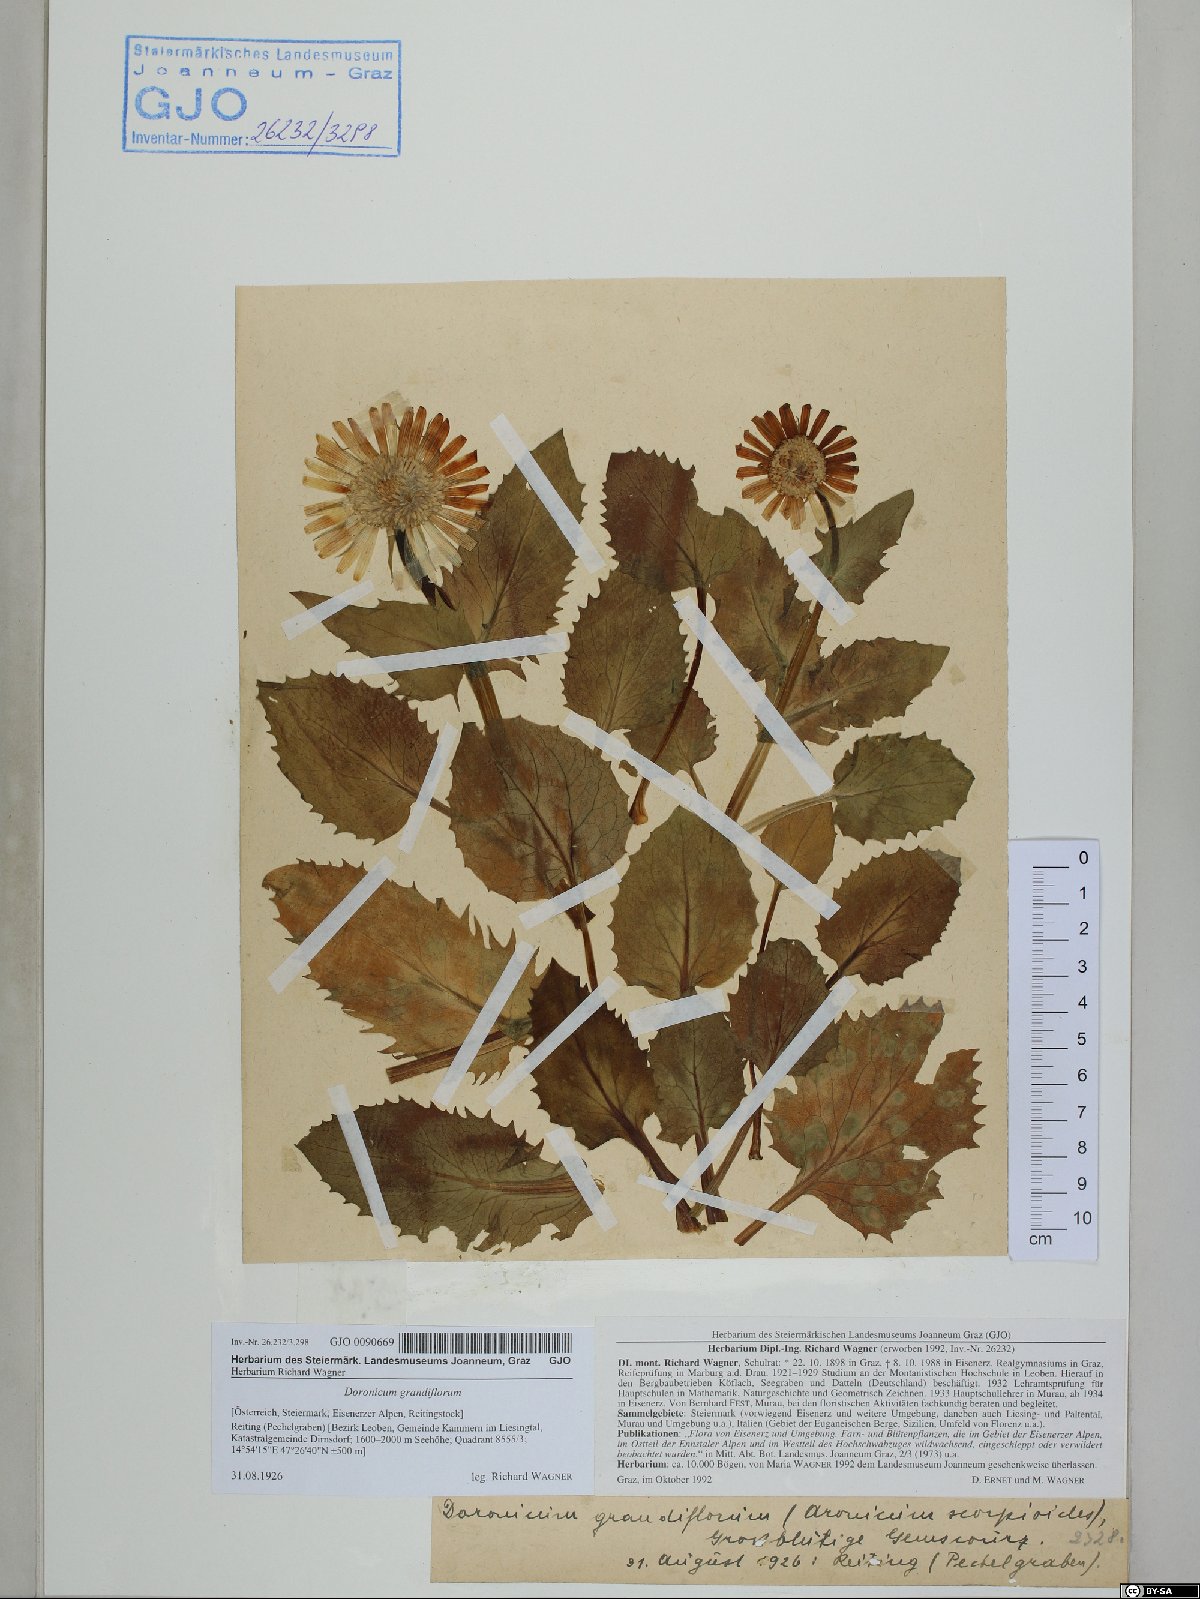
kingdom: Plantae
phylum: Tracheophyta
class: Magnoliopsida
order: Asterales
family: Asteraceae
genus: Doronicum
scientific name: Doronicum grandiflorum
